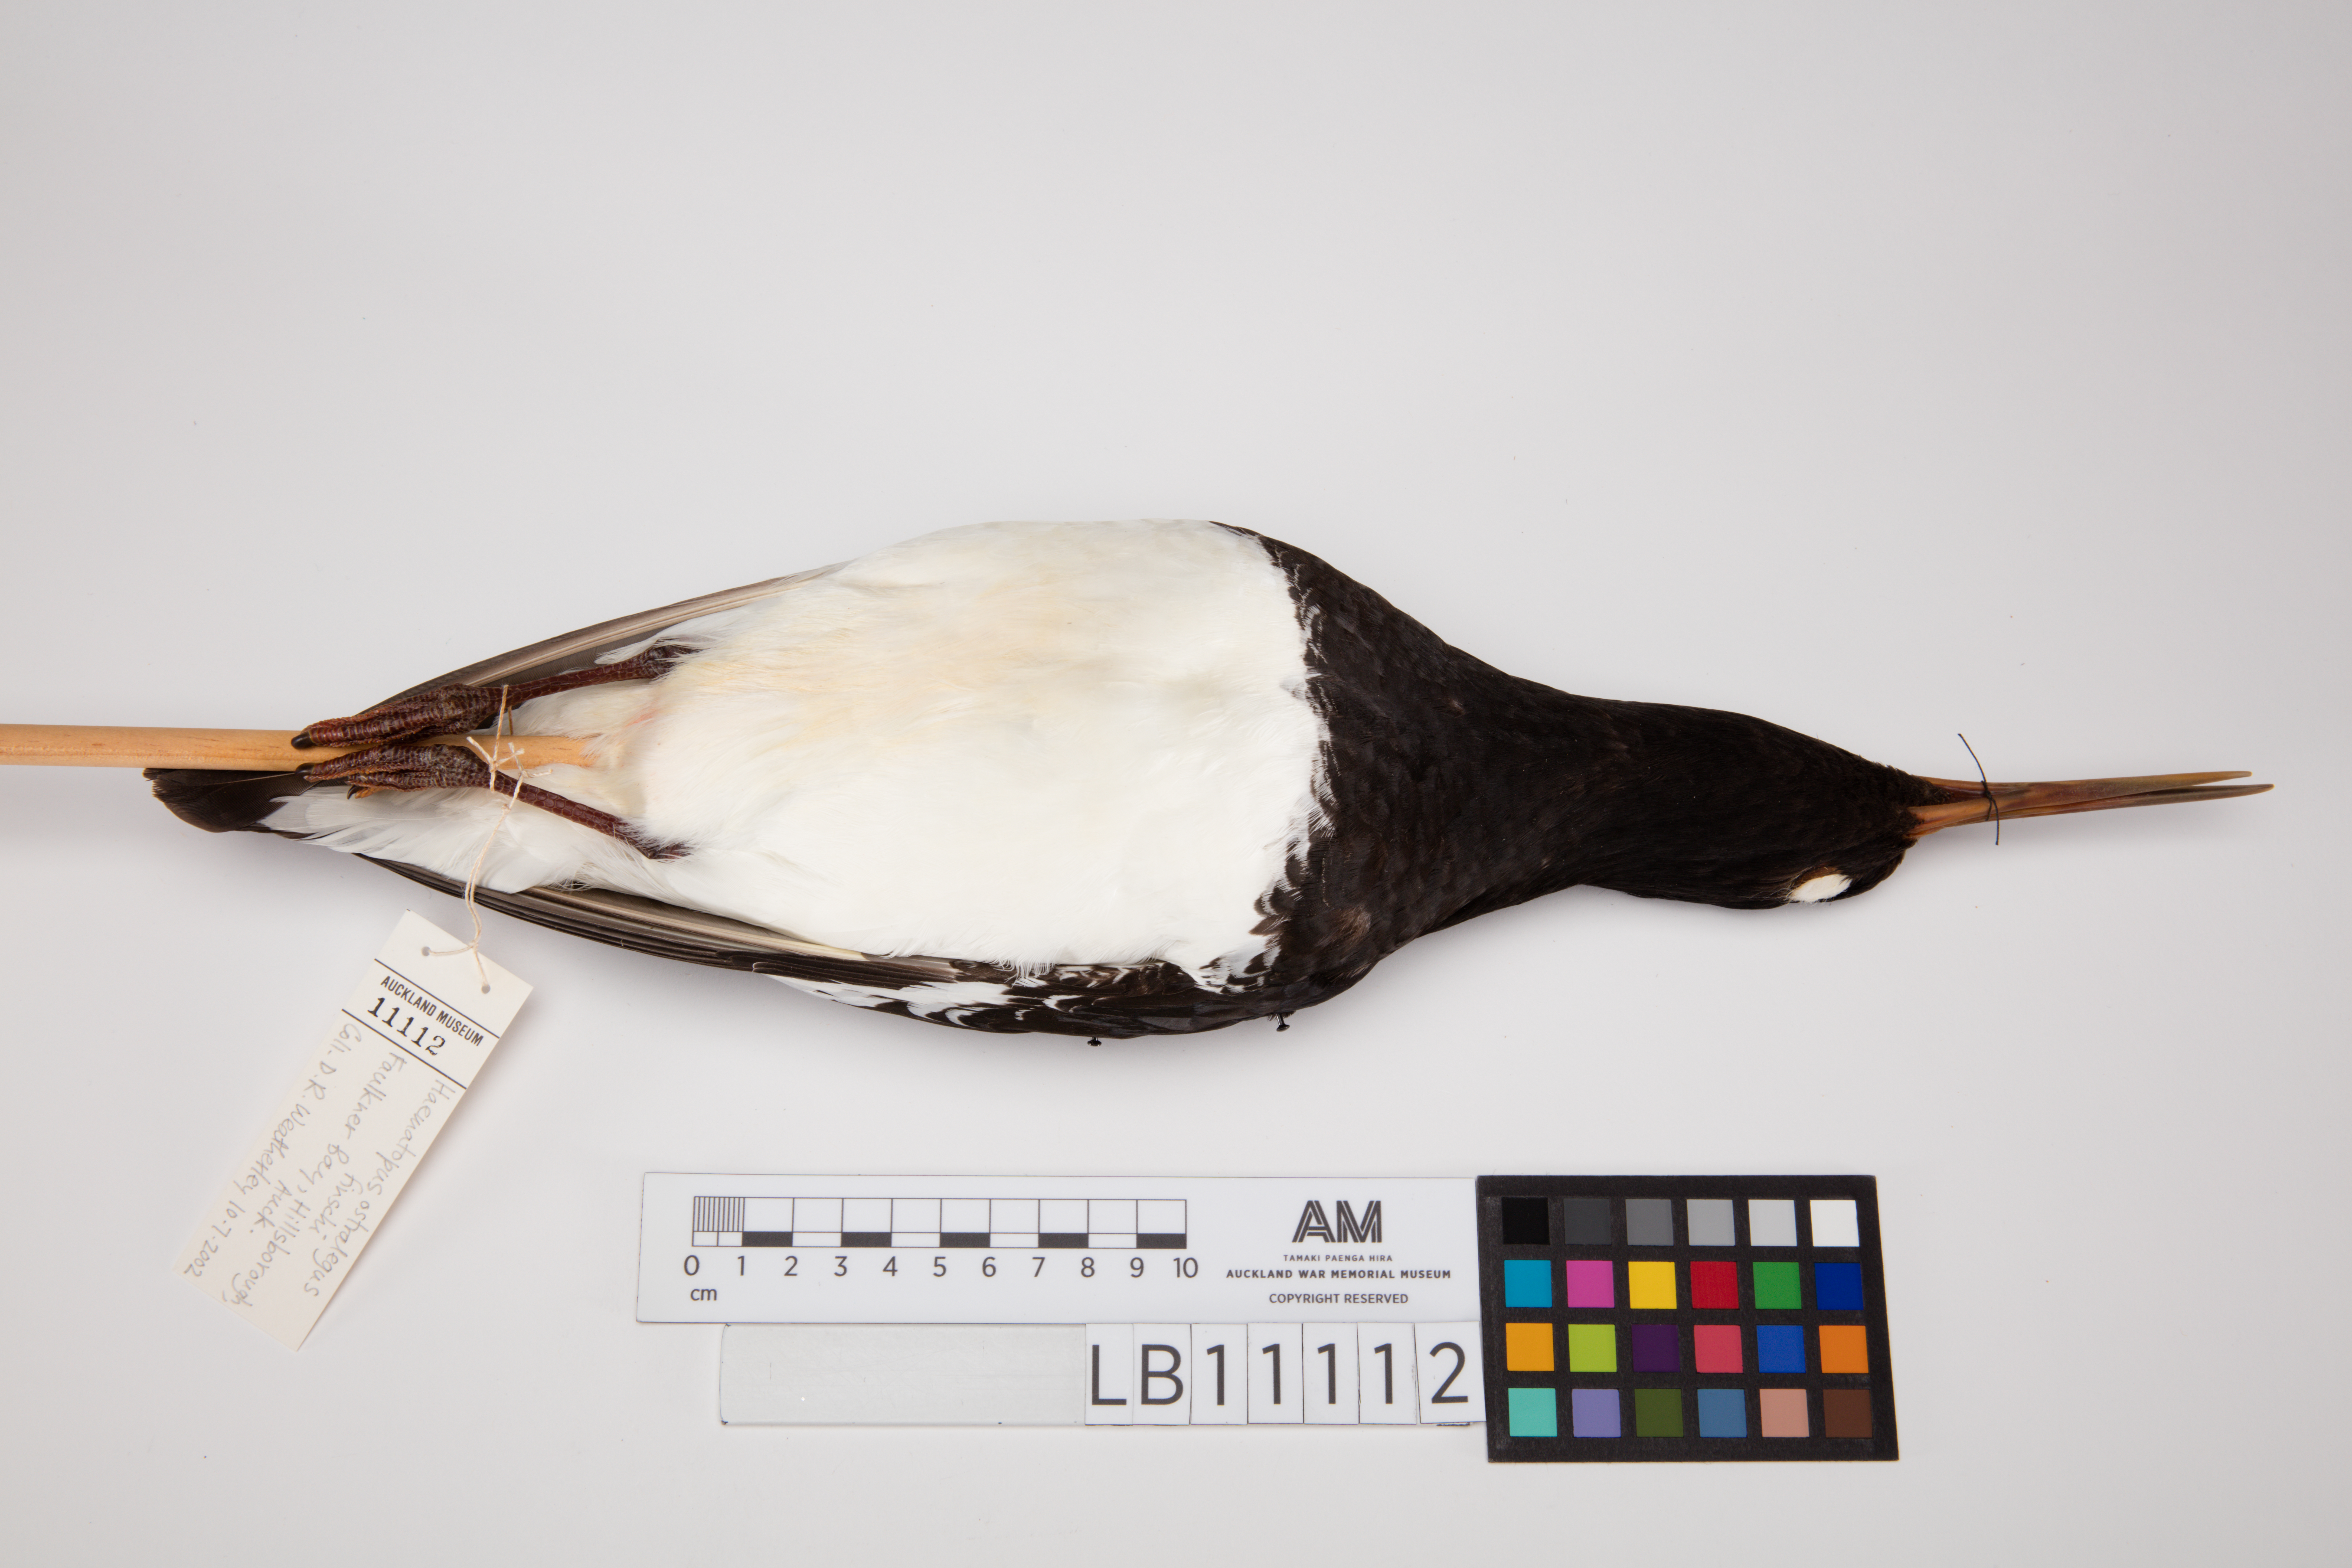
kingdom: Animalia
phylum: Chordata
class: Aves
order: Charadriiformes
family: Haematopodidae
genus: Haematopus
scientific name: Haematopus finschi
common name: South island oystercatcher
